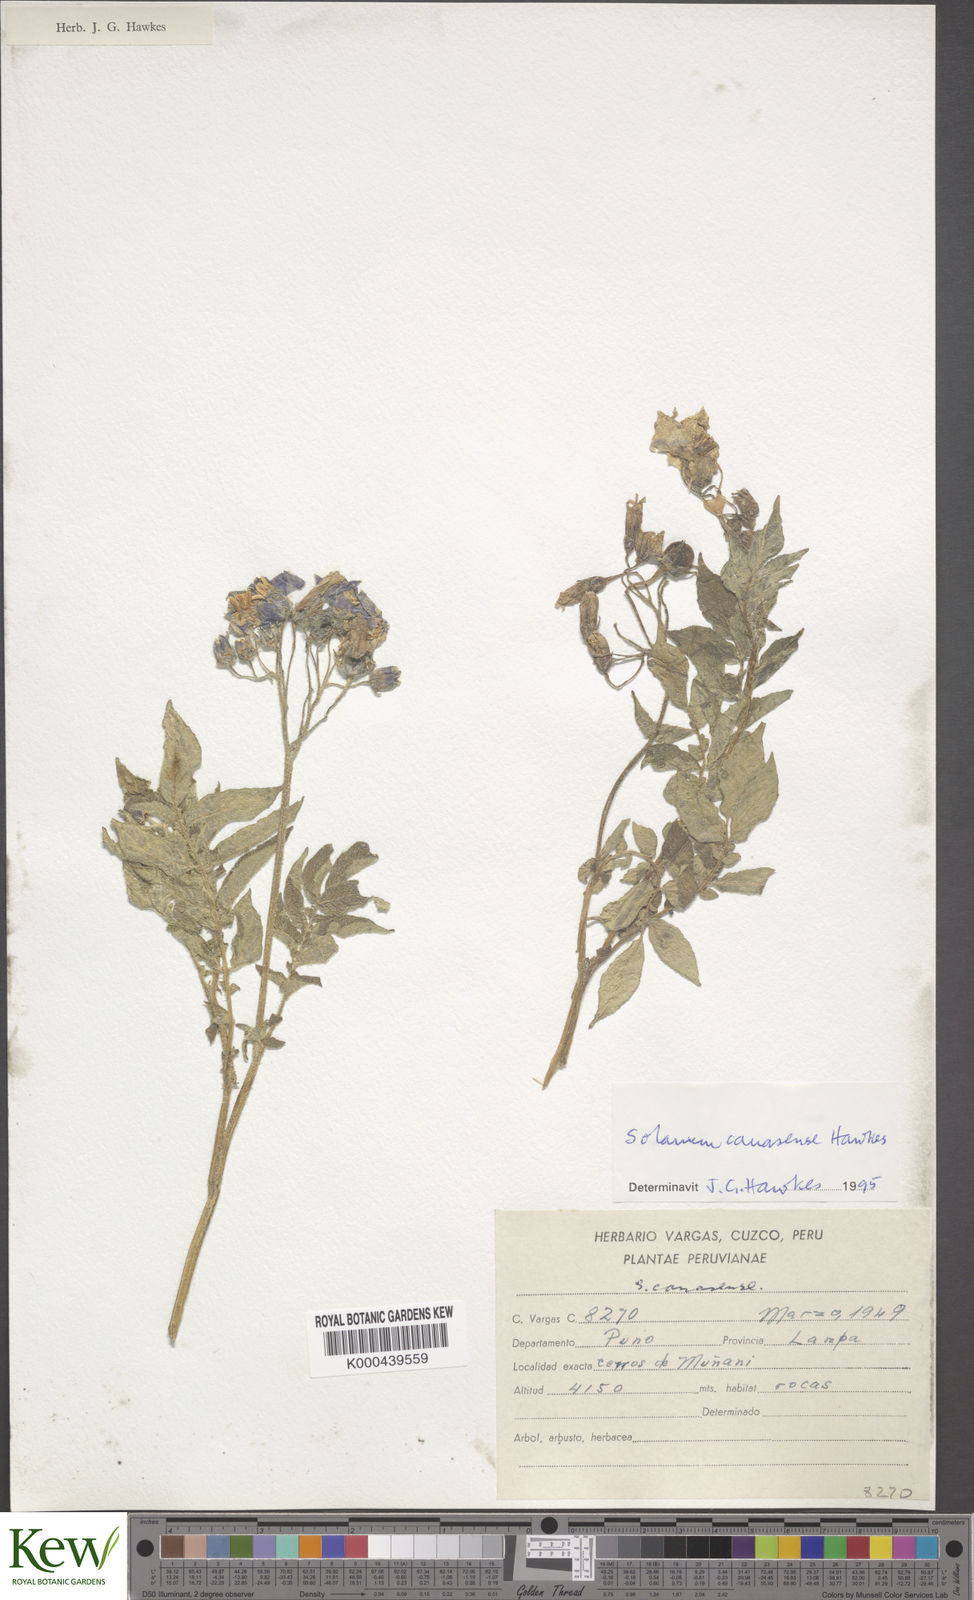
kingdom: Plantae
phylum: Tracheophyta
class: Magnoliopsida
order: Solanales
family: Solanaceae
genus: Solanum
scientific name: Solanum candolleanum
